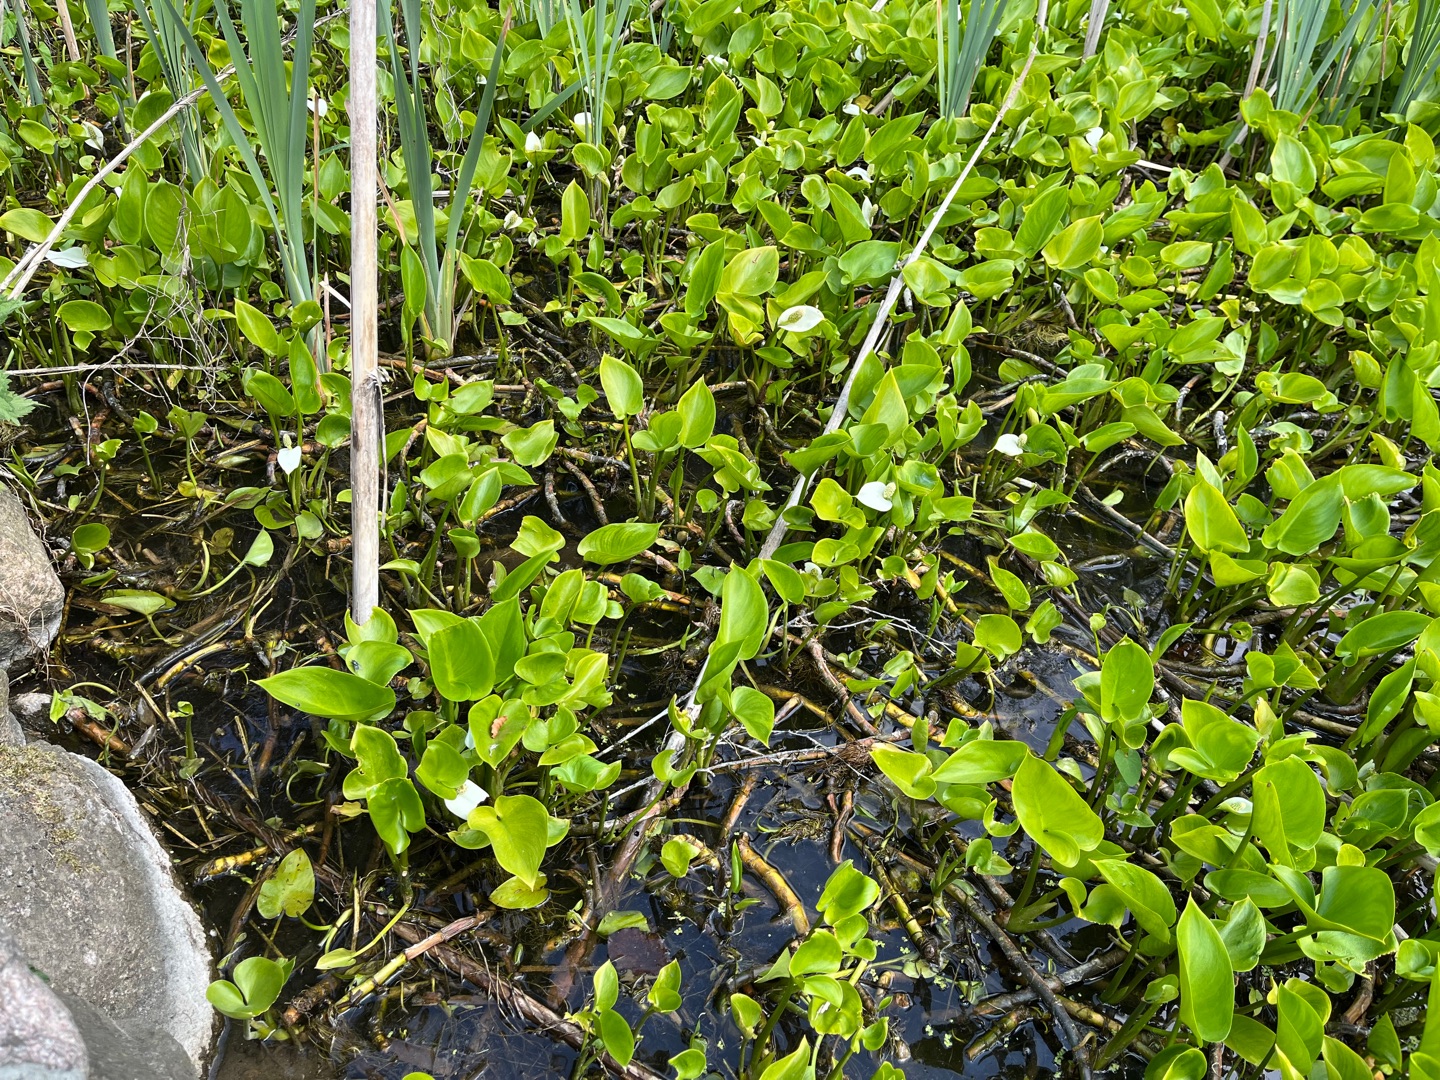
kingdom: Plantae
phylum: Tracheophyta
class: Liliopsida
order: Alismatales
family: Araceae
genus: Calla
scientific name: Calla palustris
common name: Kærmysse
